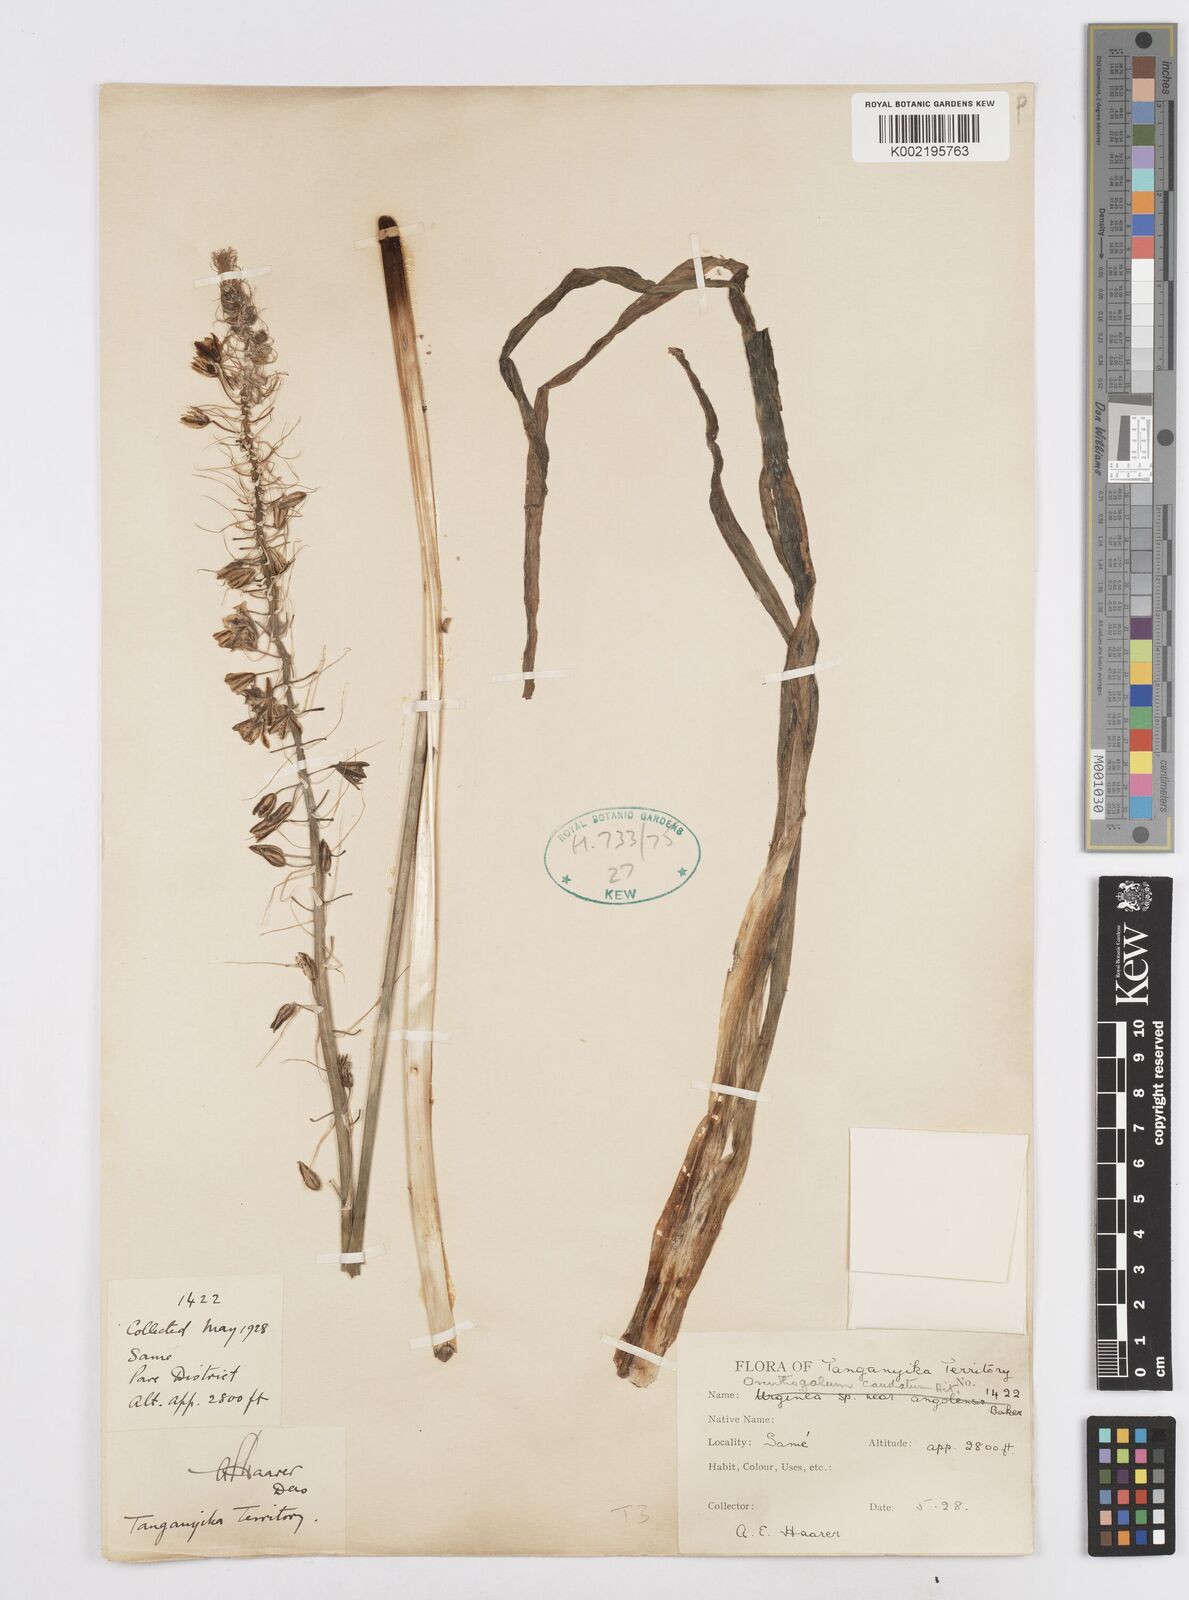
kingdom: Plantae
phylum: Tracheophyta
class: Liliopsida
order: Asparagales
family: Asparagaceae
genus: Albuca
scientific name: Albuca virens
